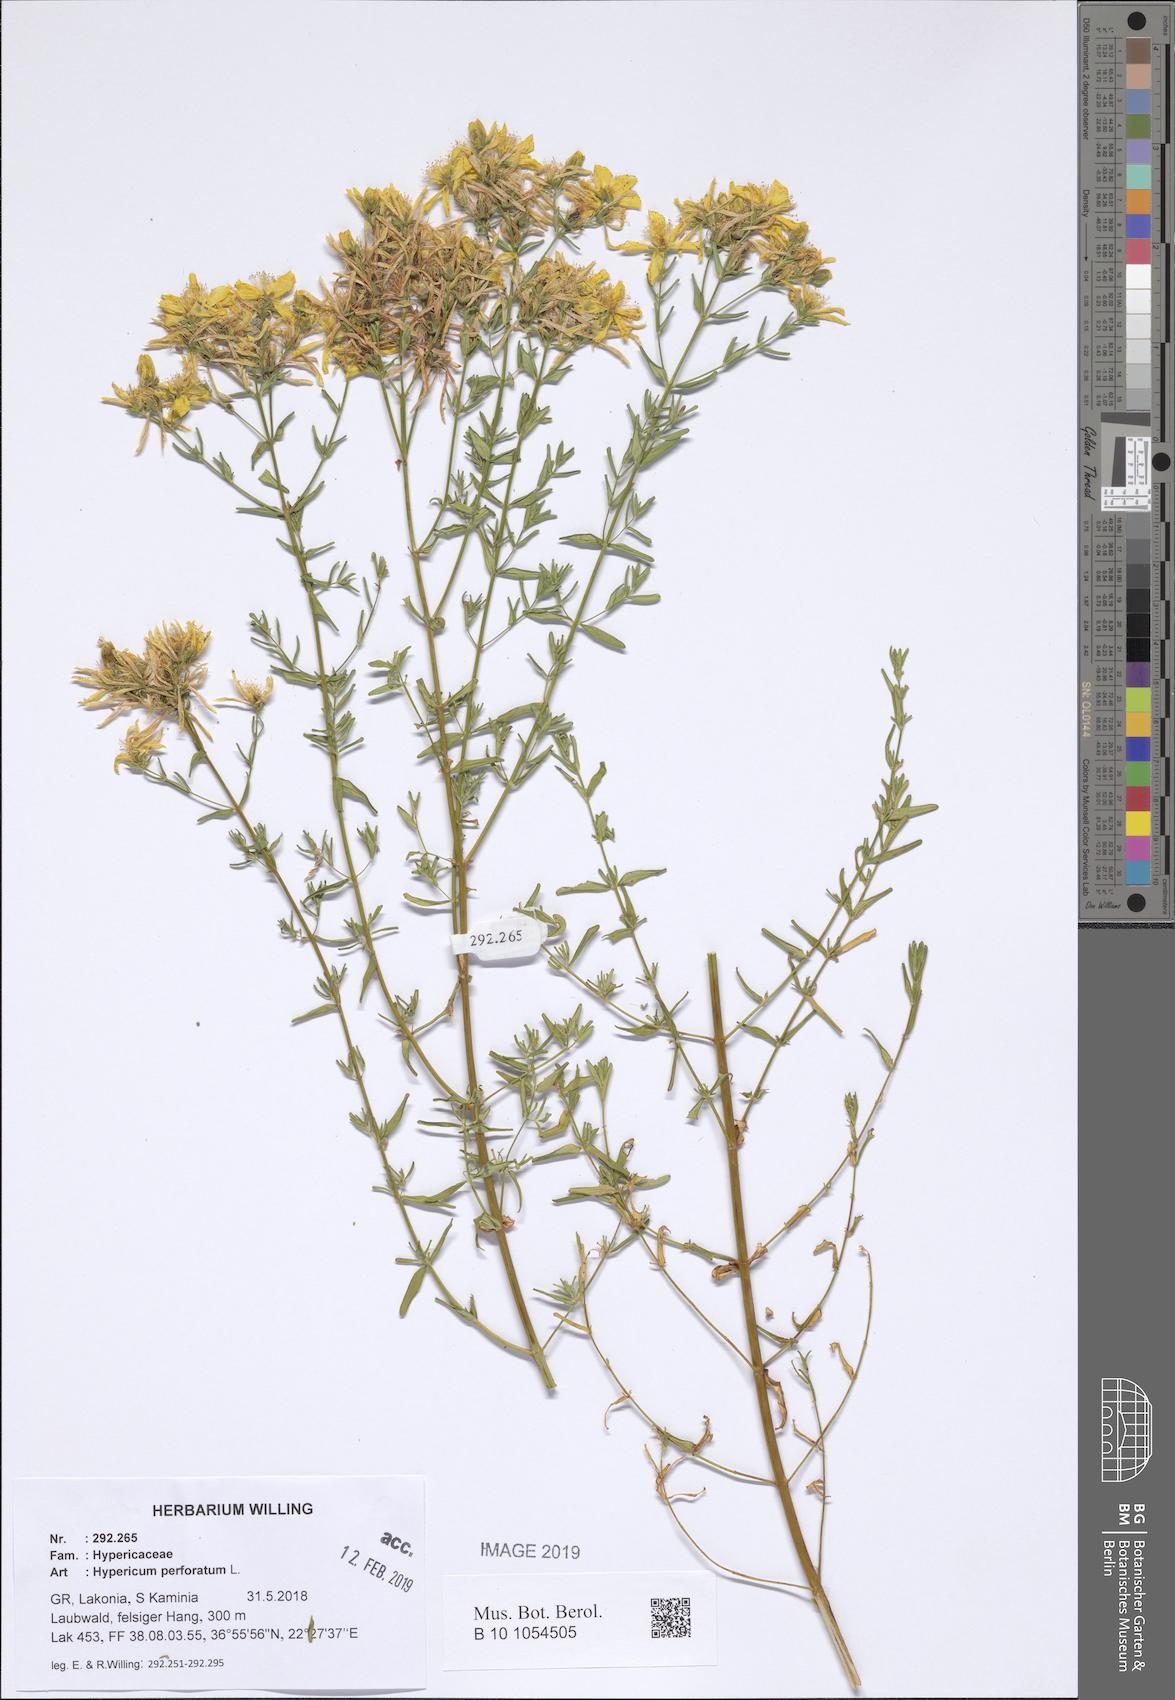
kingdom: Plantae
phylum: Tracheophyta
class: Magnoliopsida
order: Malpighiales
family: Hypericaceae
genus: Hypericum
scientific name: Hypericum perforatum
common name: Common st. johnswort
